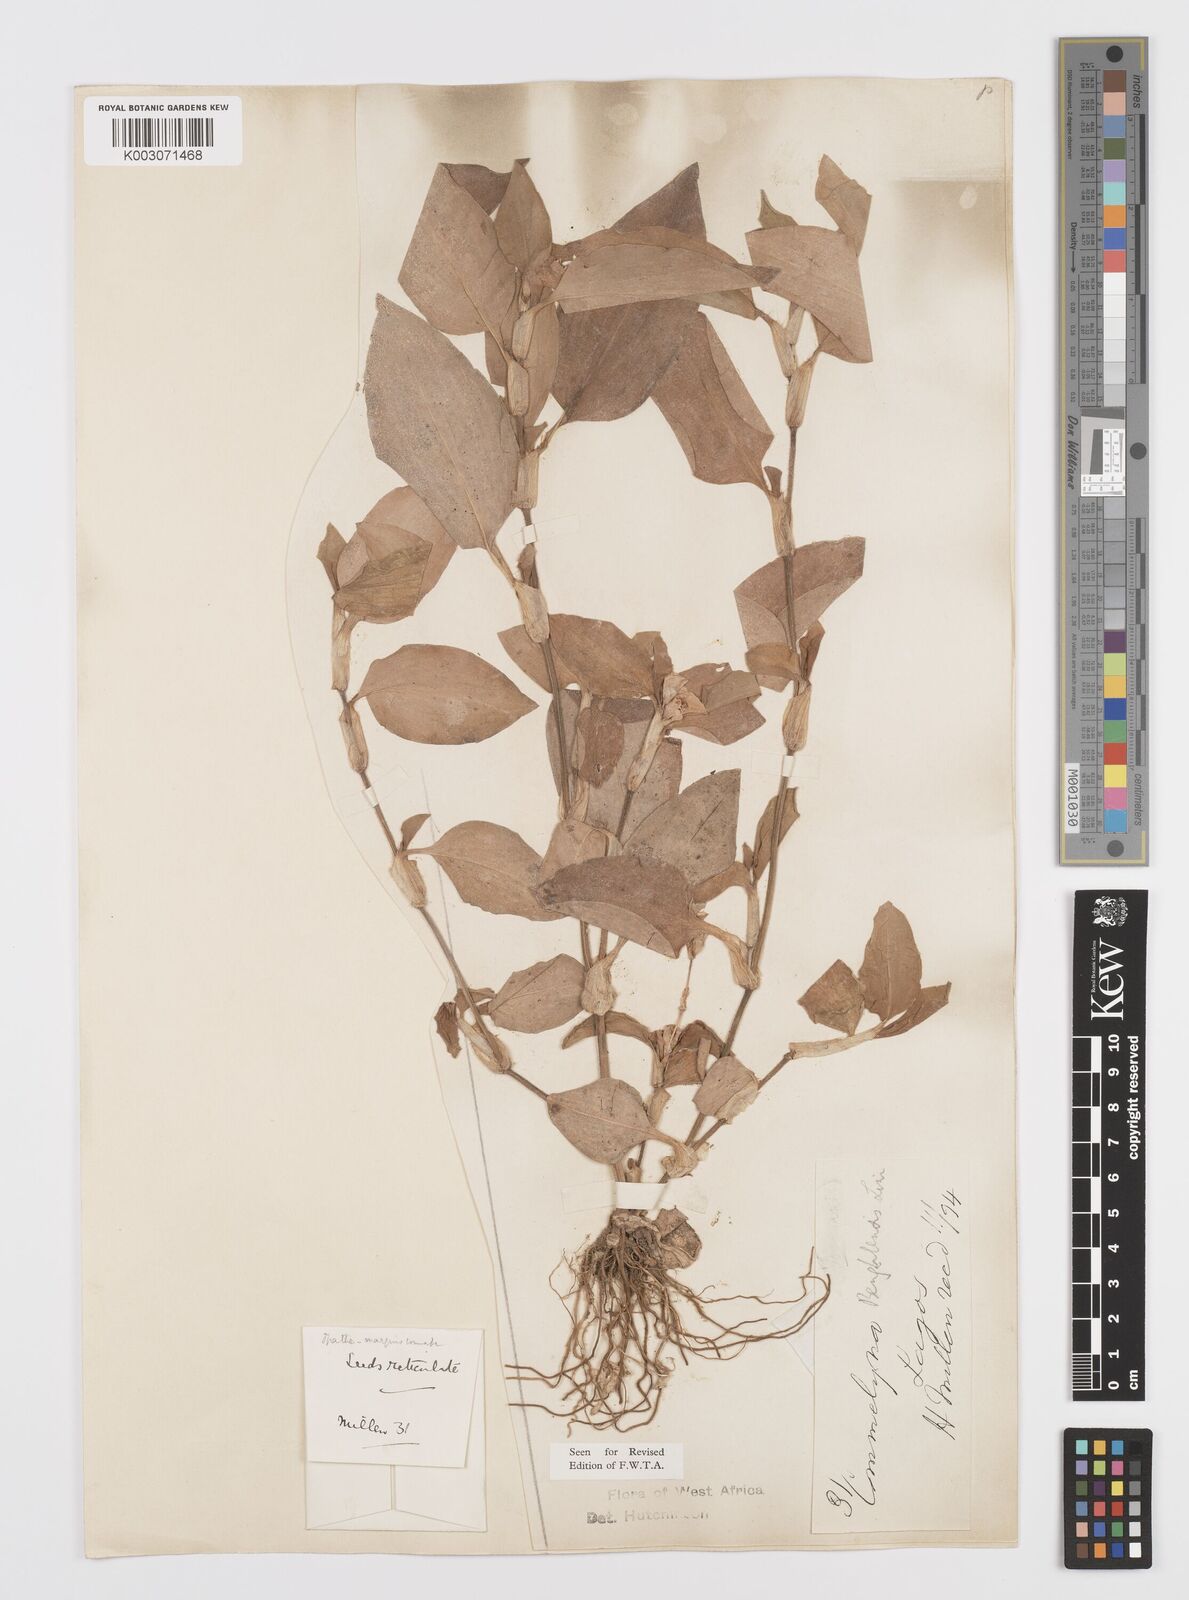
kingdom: Plantae
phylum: Tracheophyta
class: Liliopsida
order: Commelinales
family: Commelinaceae
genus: Commelina
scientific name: Commelina benghalensis
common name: Jio
